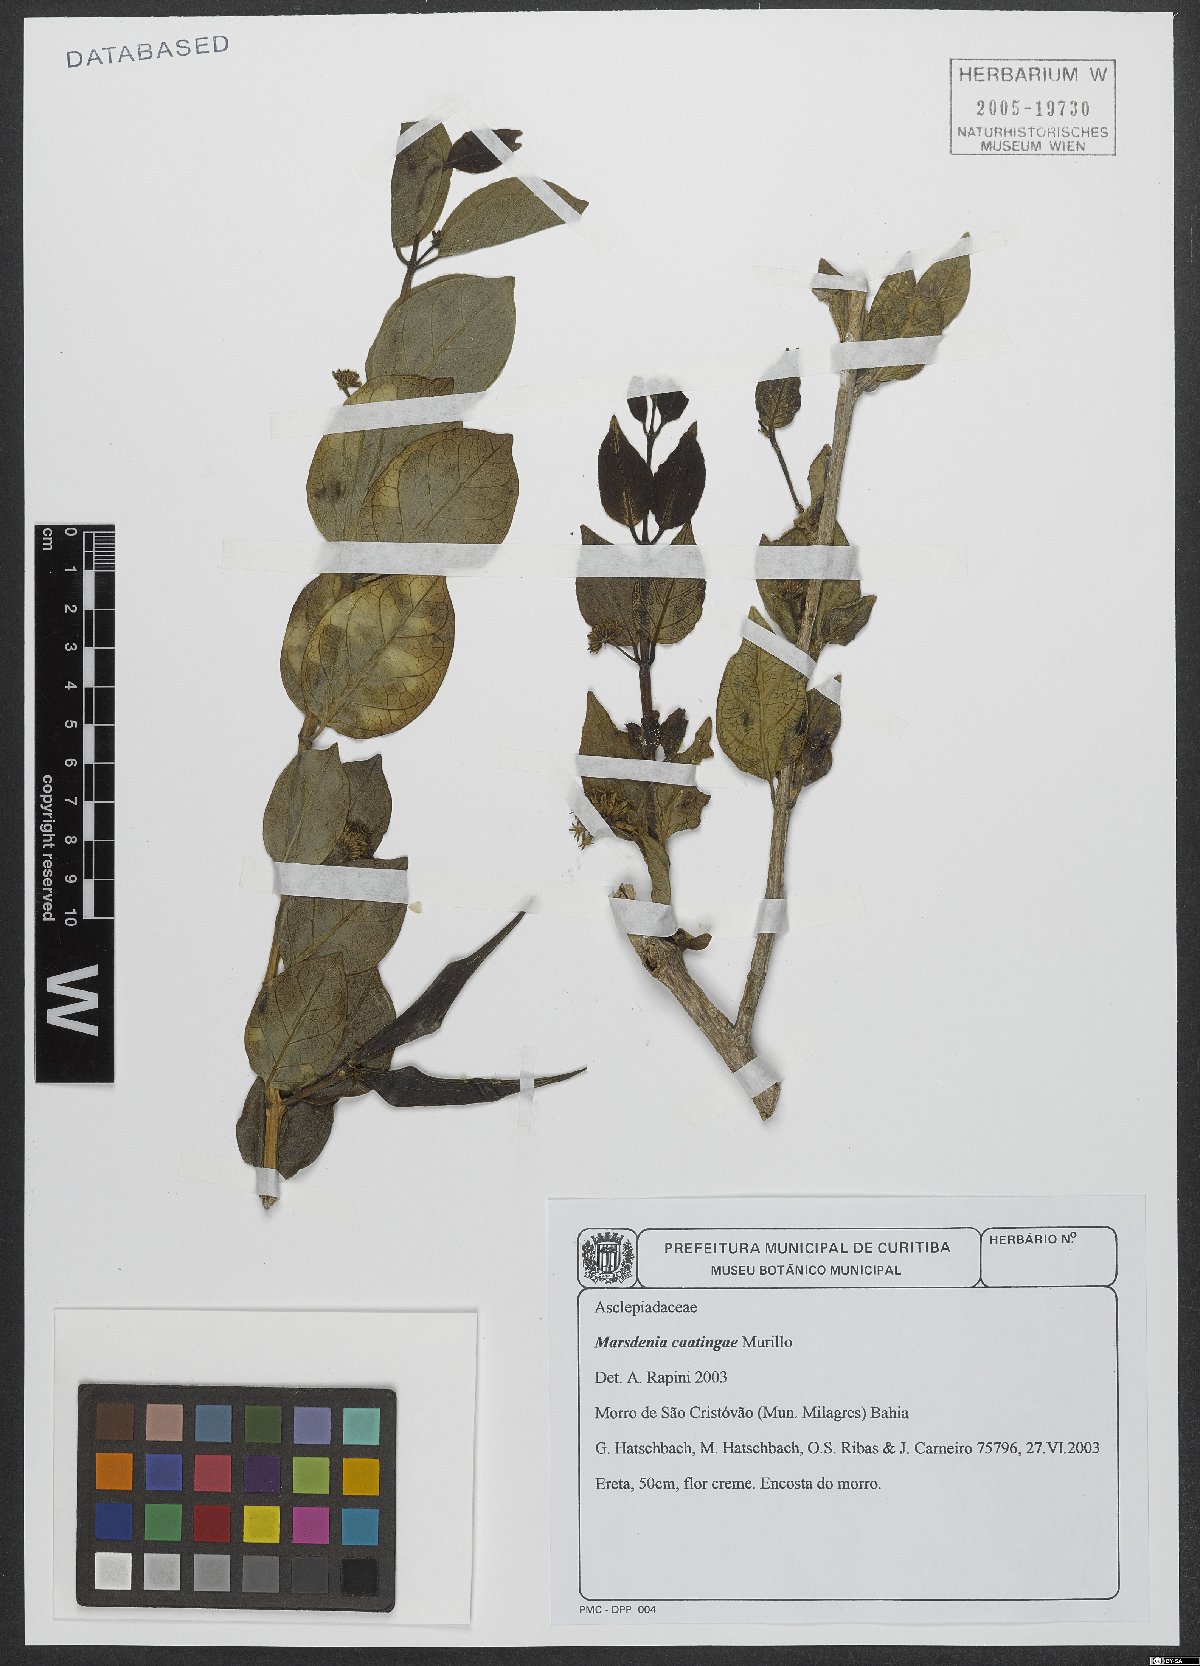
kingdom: Plantae
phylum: Tracheophyta
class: Magnoliopsida
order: Gentianales
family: Apocynaceae
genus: Ruehssia
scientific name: Ruehssia caatingae
